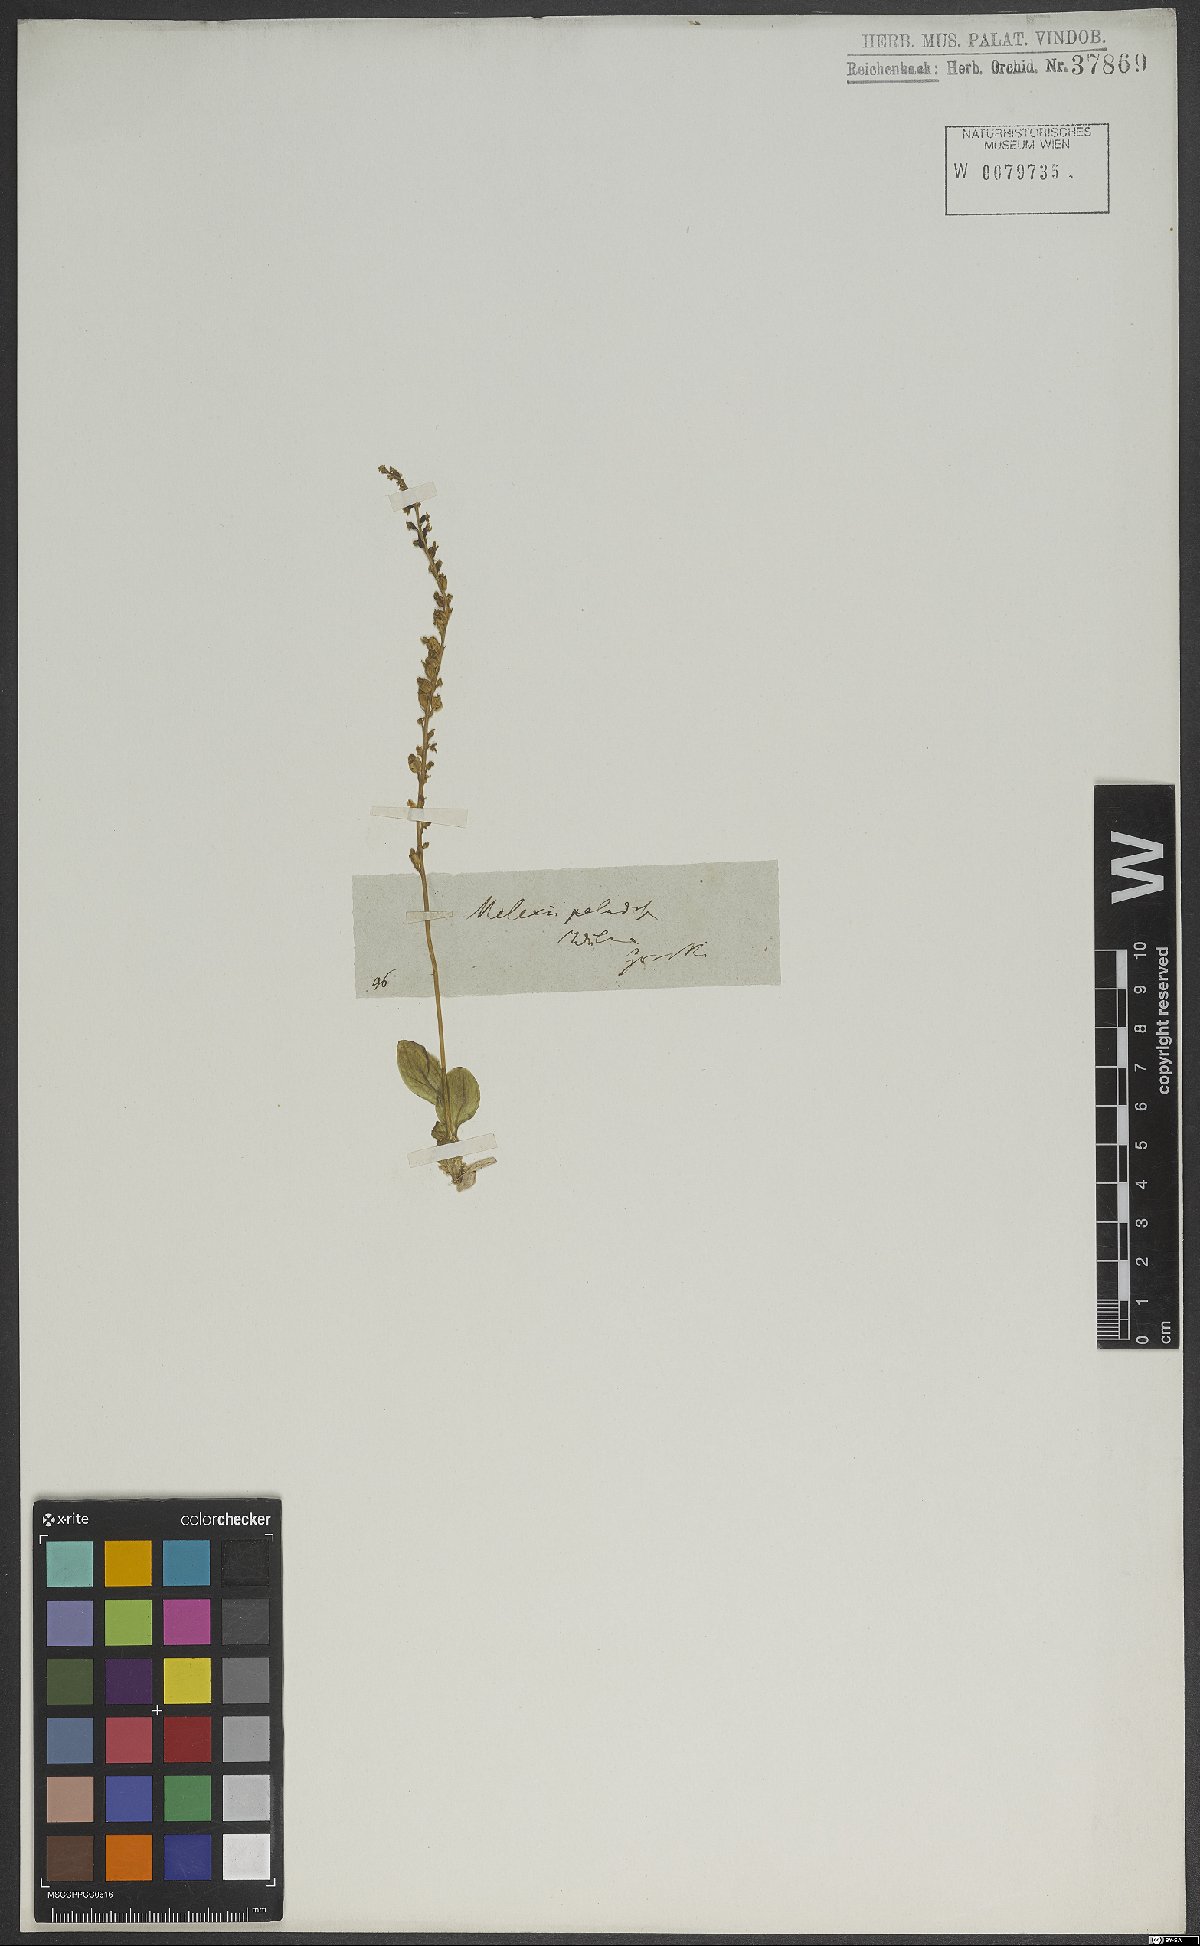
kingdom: Plantae
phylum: Tracheophyta
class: Liliopsida
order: Asparagales
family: Orchidaceae
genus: Hammarbya
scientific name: Hammarbya paludosa
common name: Bog orchid
